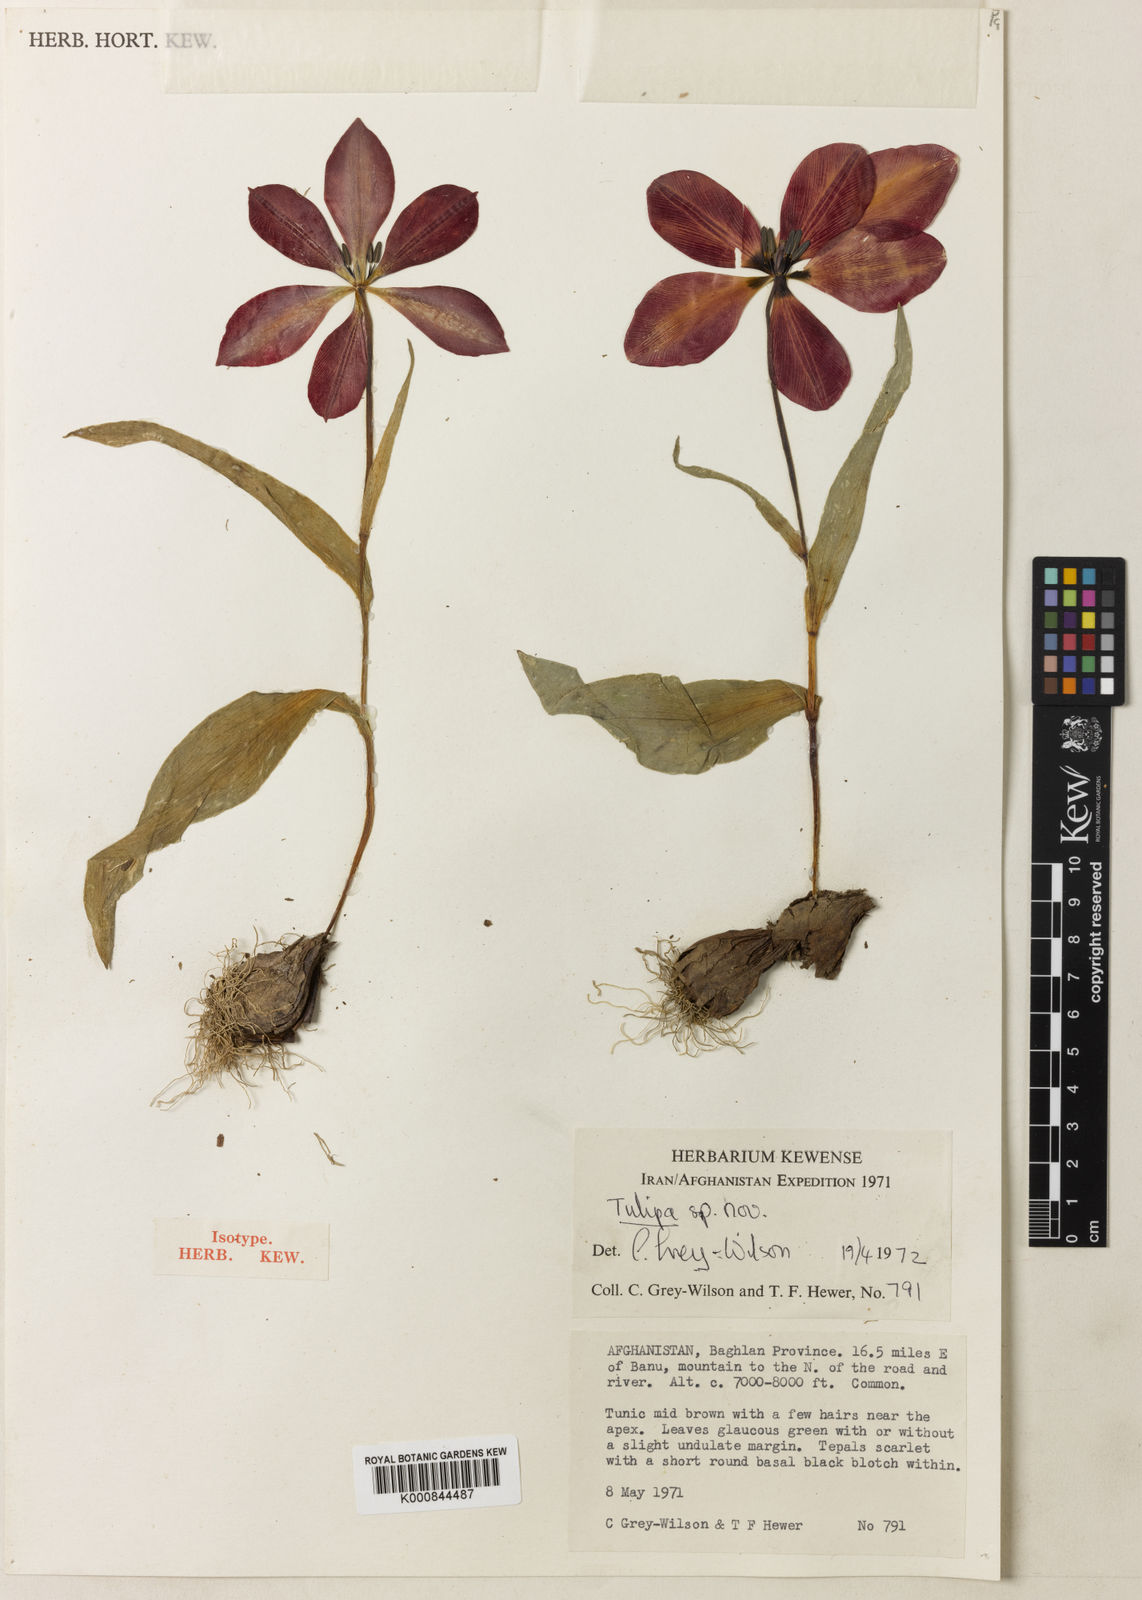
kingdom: Plantae
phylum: Tracheophyta
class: Liliopsida
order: Liliales
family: Liliaceae
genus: Tulipa
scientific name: Tulipa banuensis
